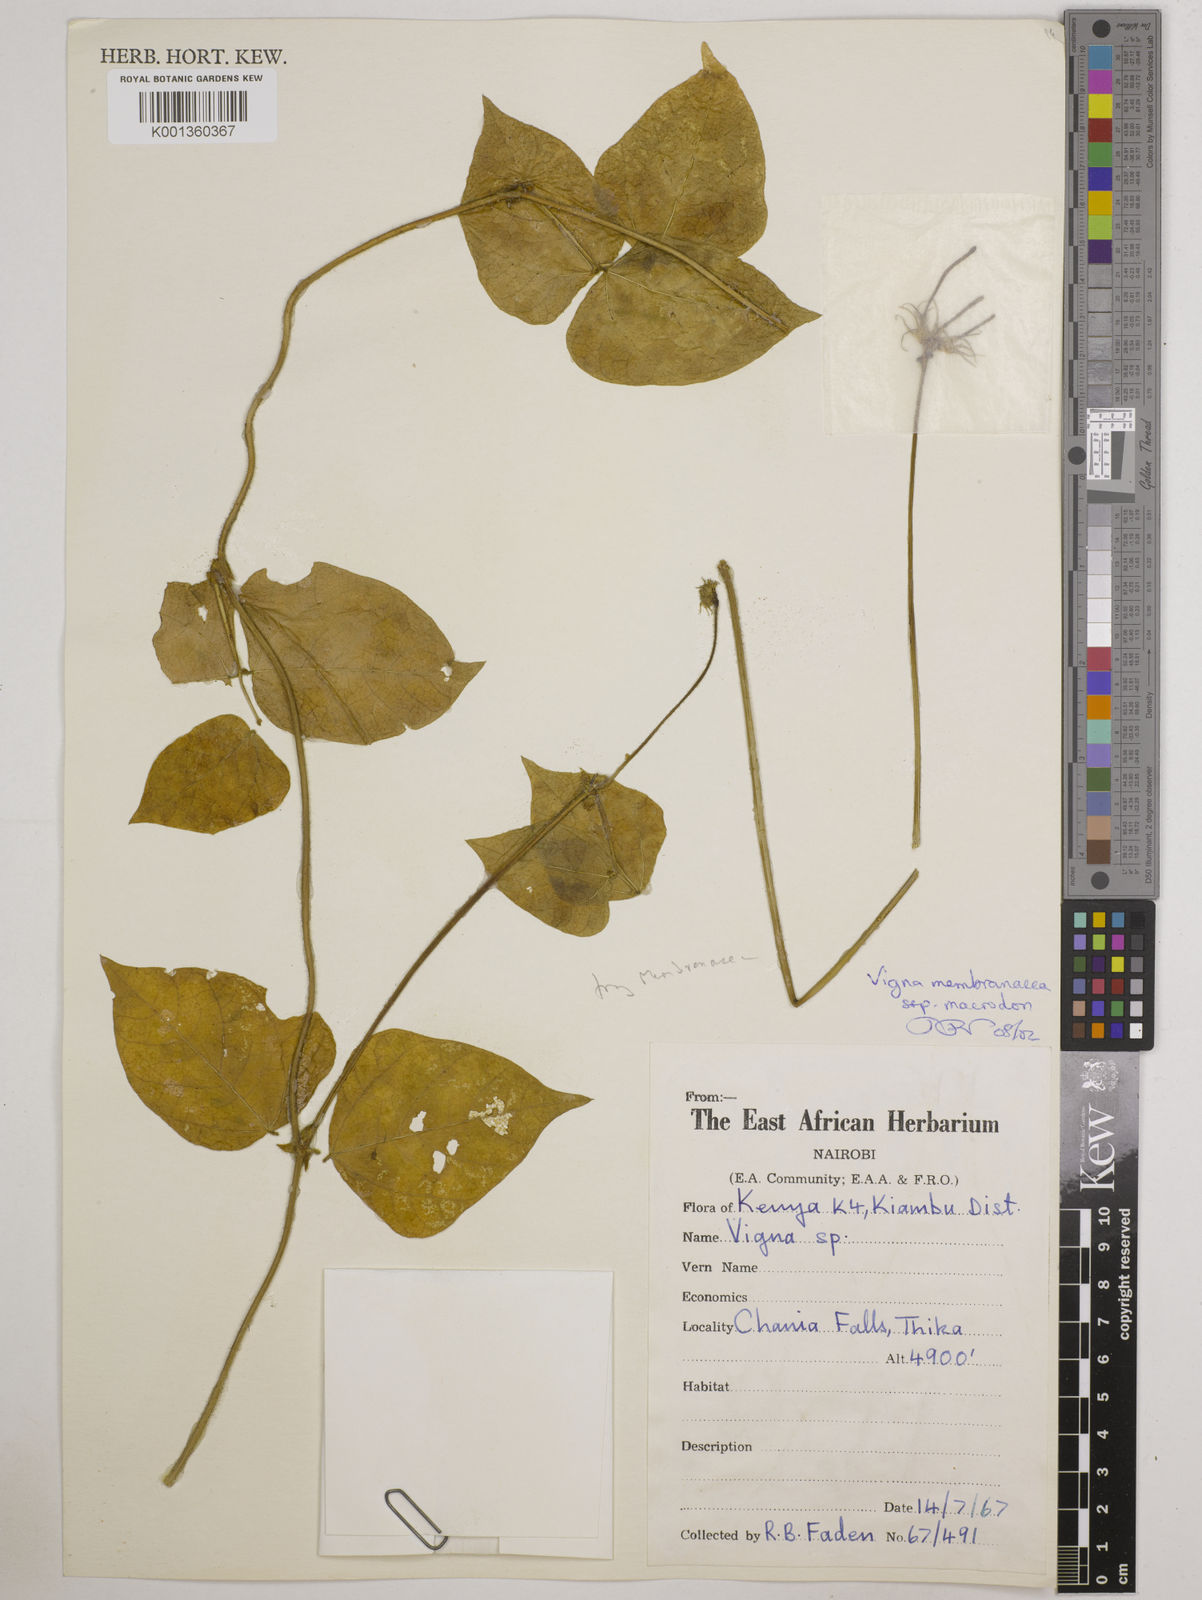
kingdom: Plantae
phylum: Tracheophyta
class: Magnoliopsida
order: Fabales
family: Fabaceae
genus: Vigna
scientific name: Vigna
